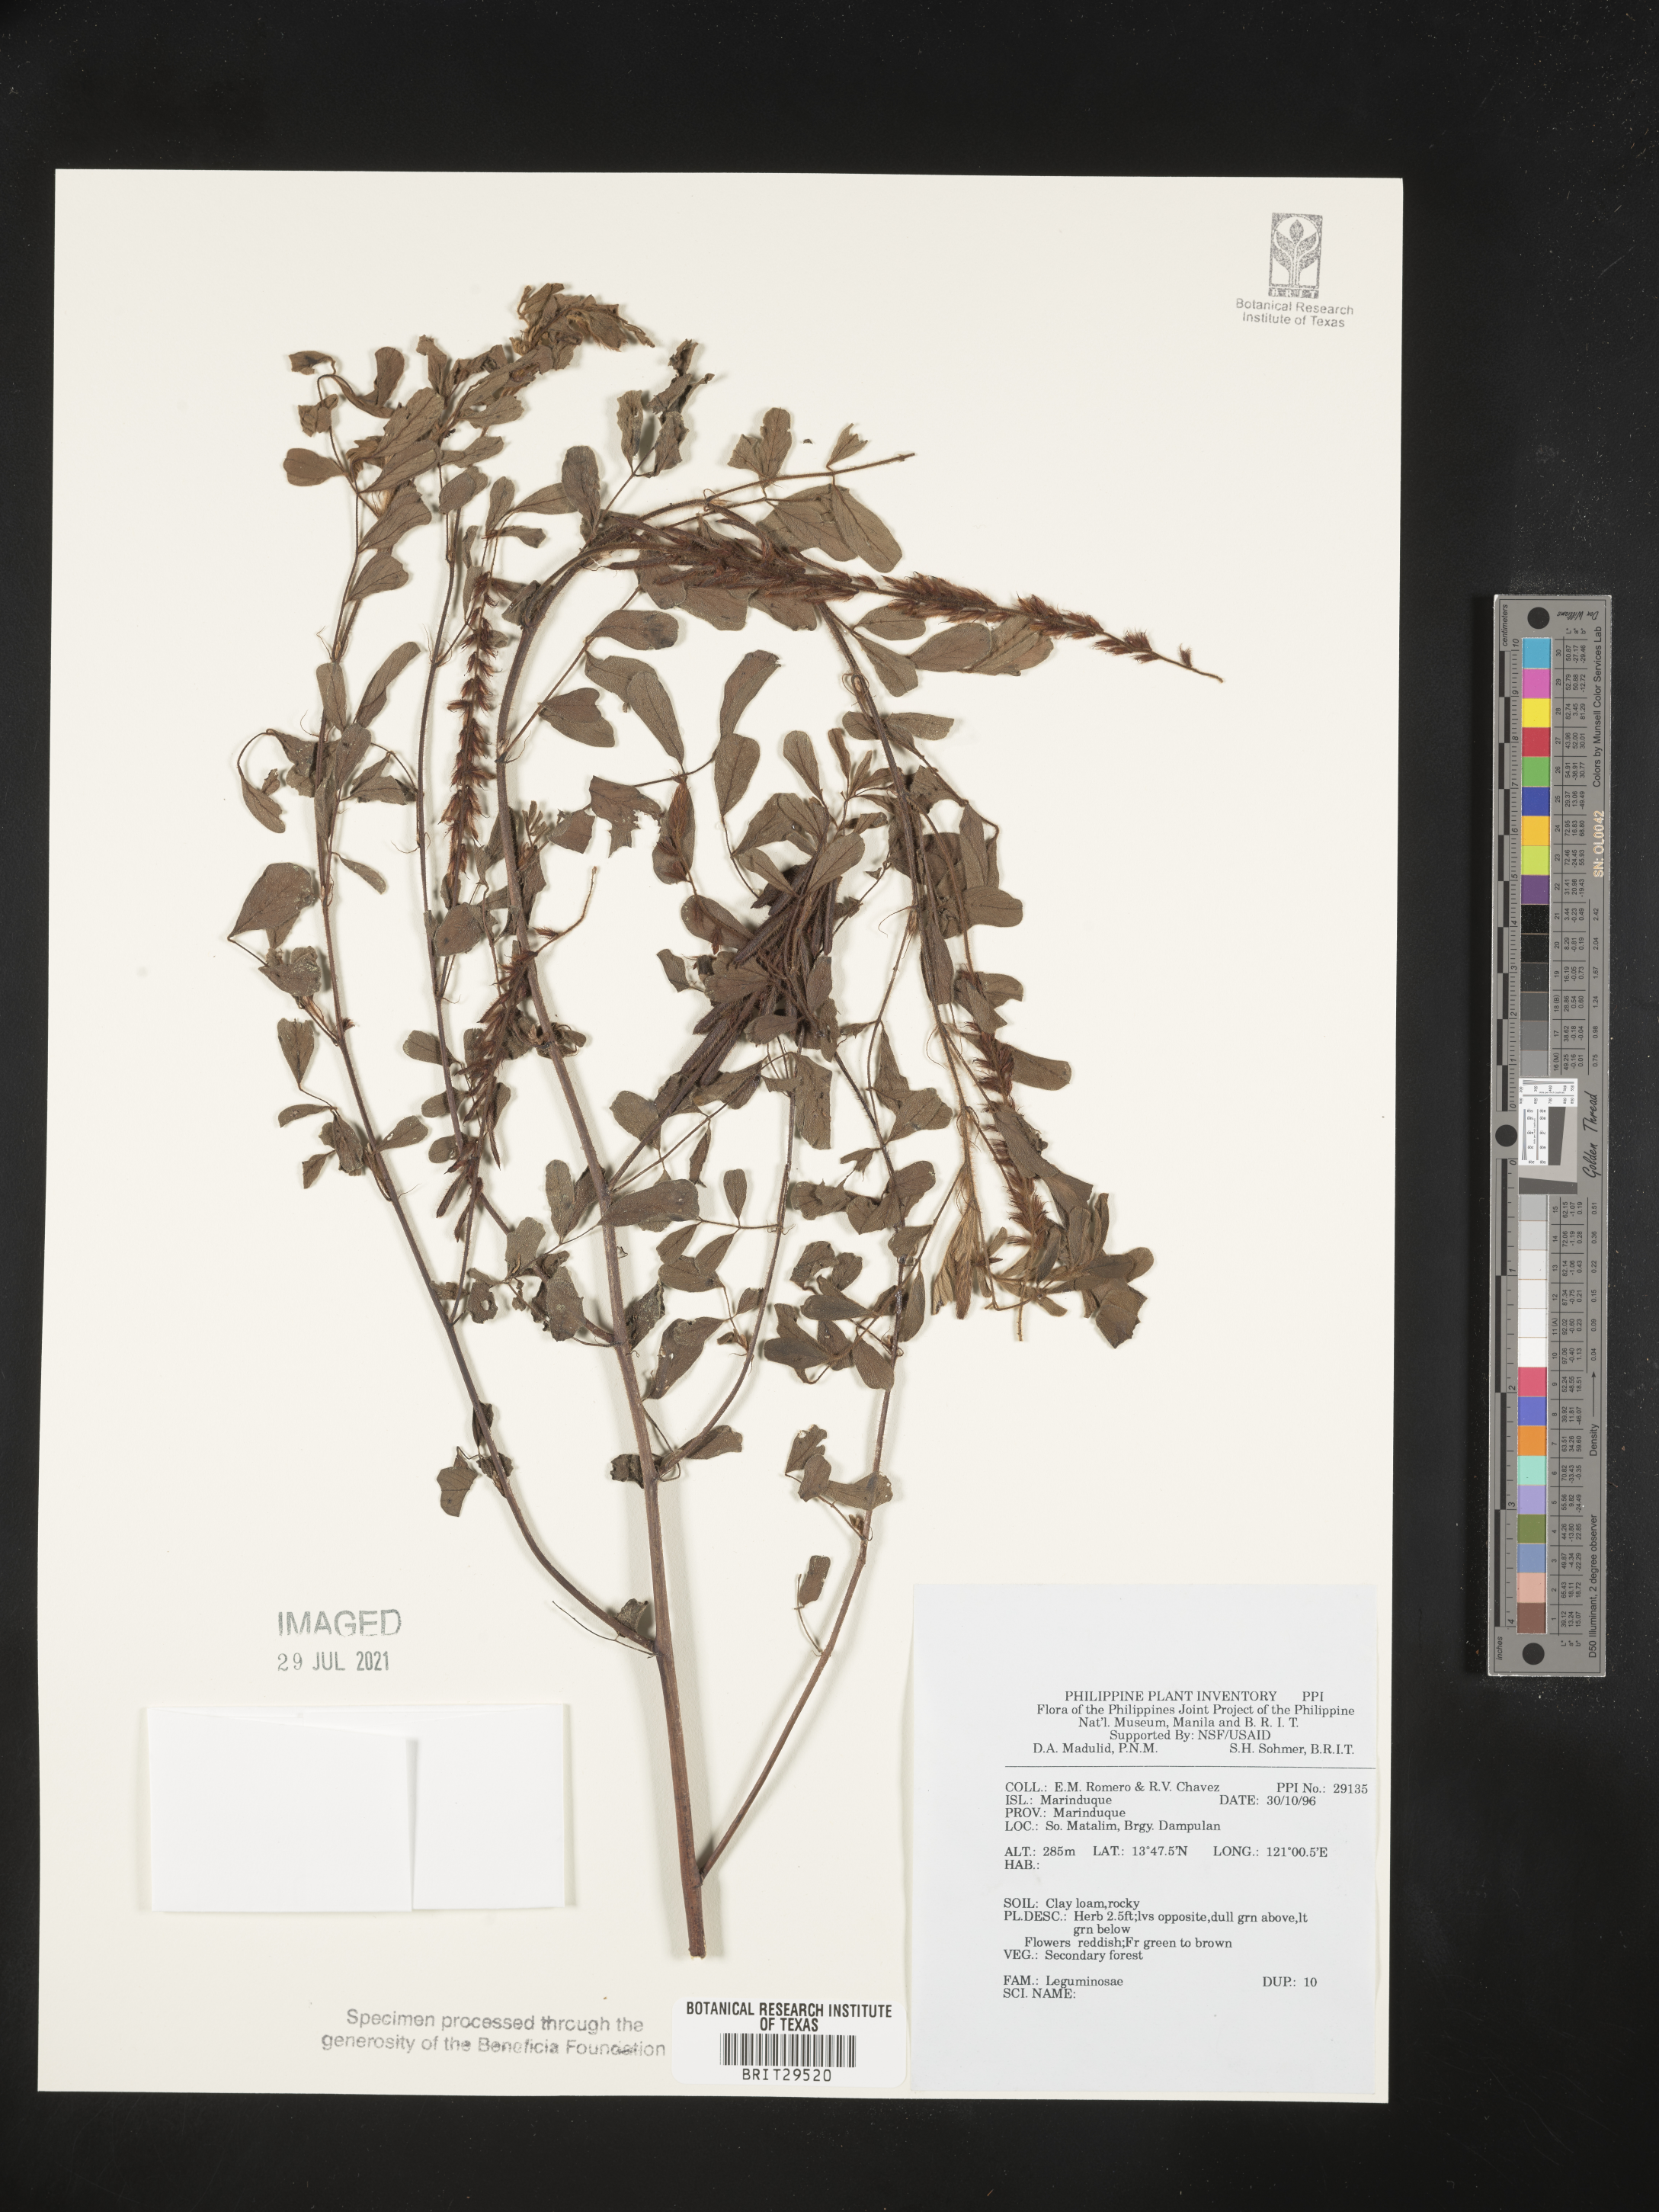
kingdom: Plantae
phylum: Tracheophyta
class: Magnoliopsida
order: Fabales
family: Fabaceae
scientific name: Fabaceae
